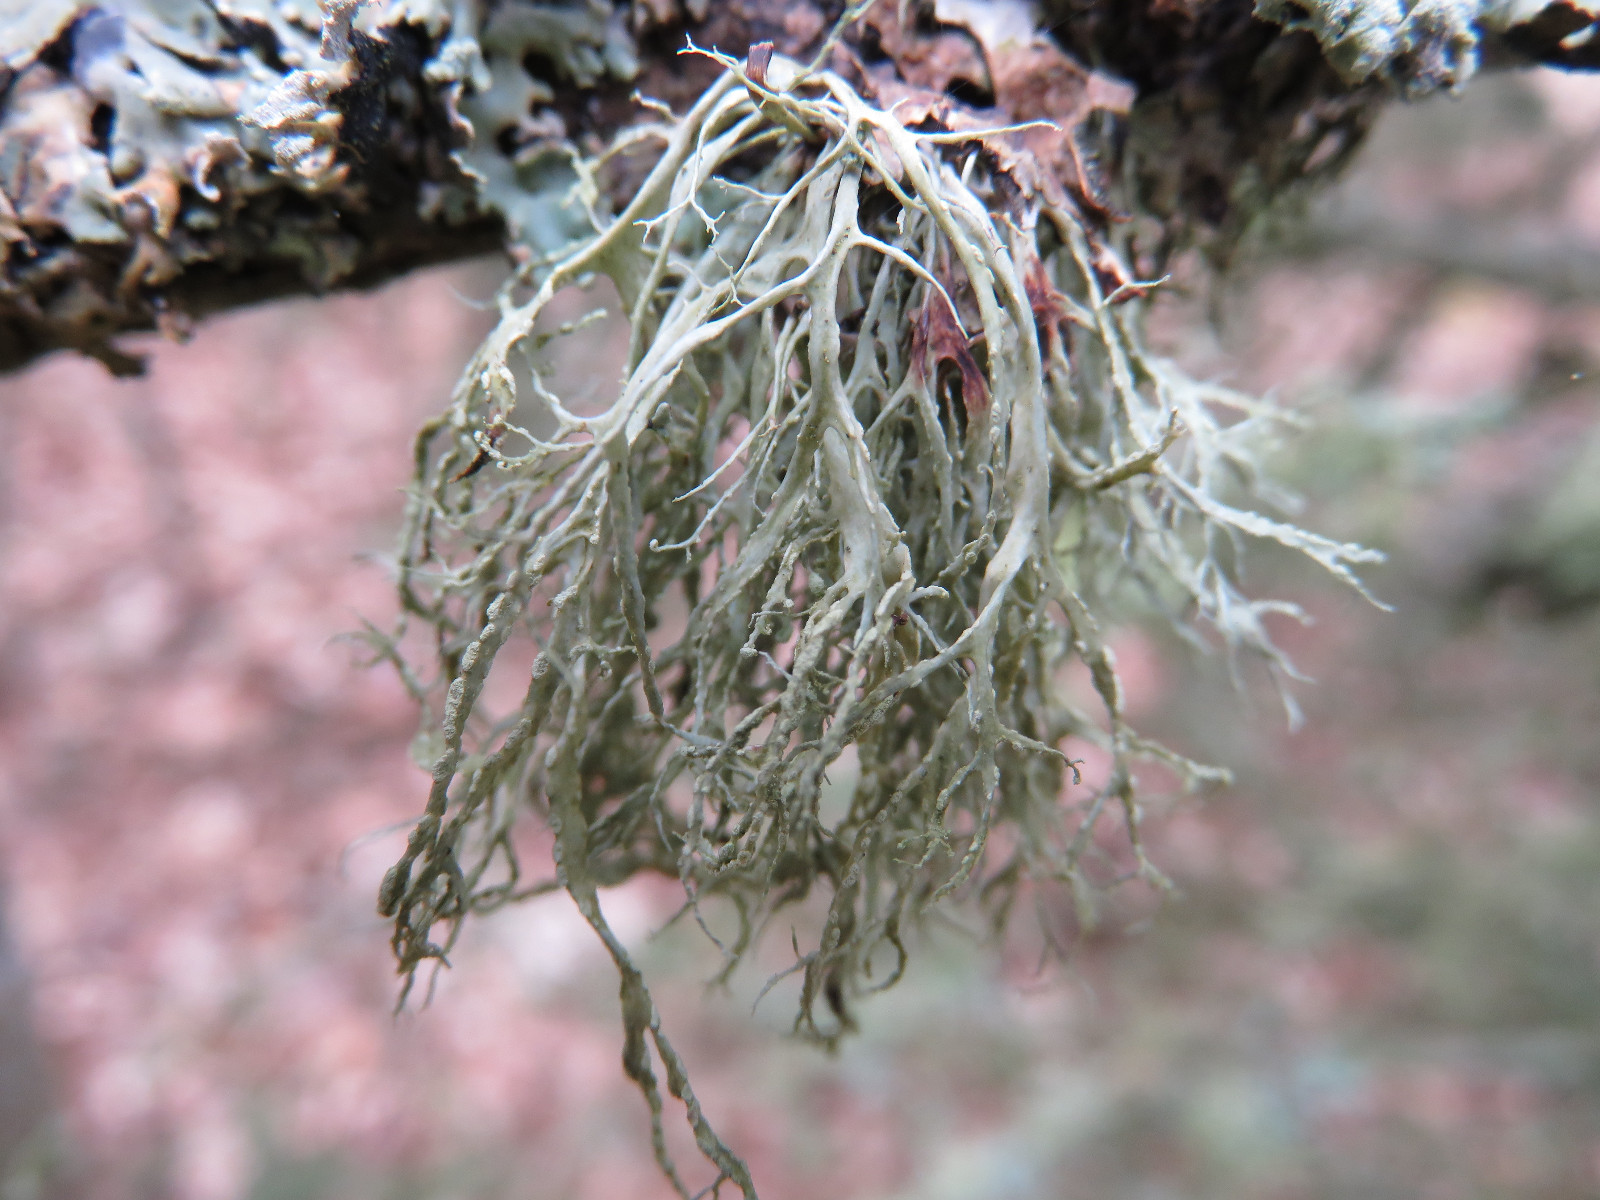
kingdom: Fungi
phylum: Ascomycota
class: Lecanoromycetes
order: Lecanorales
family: Ramalinaceae
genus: Ramalina
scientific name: Ramalina farinacea
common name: melet grenlav
